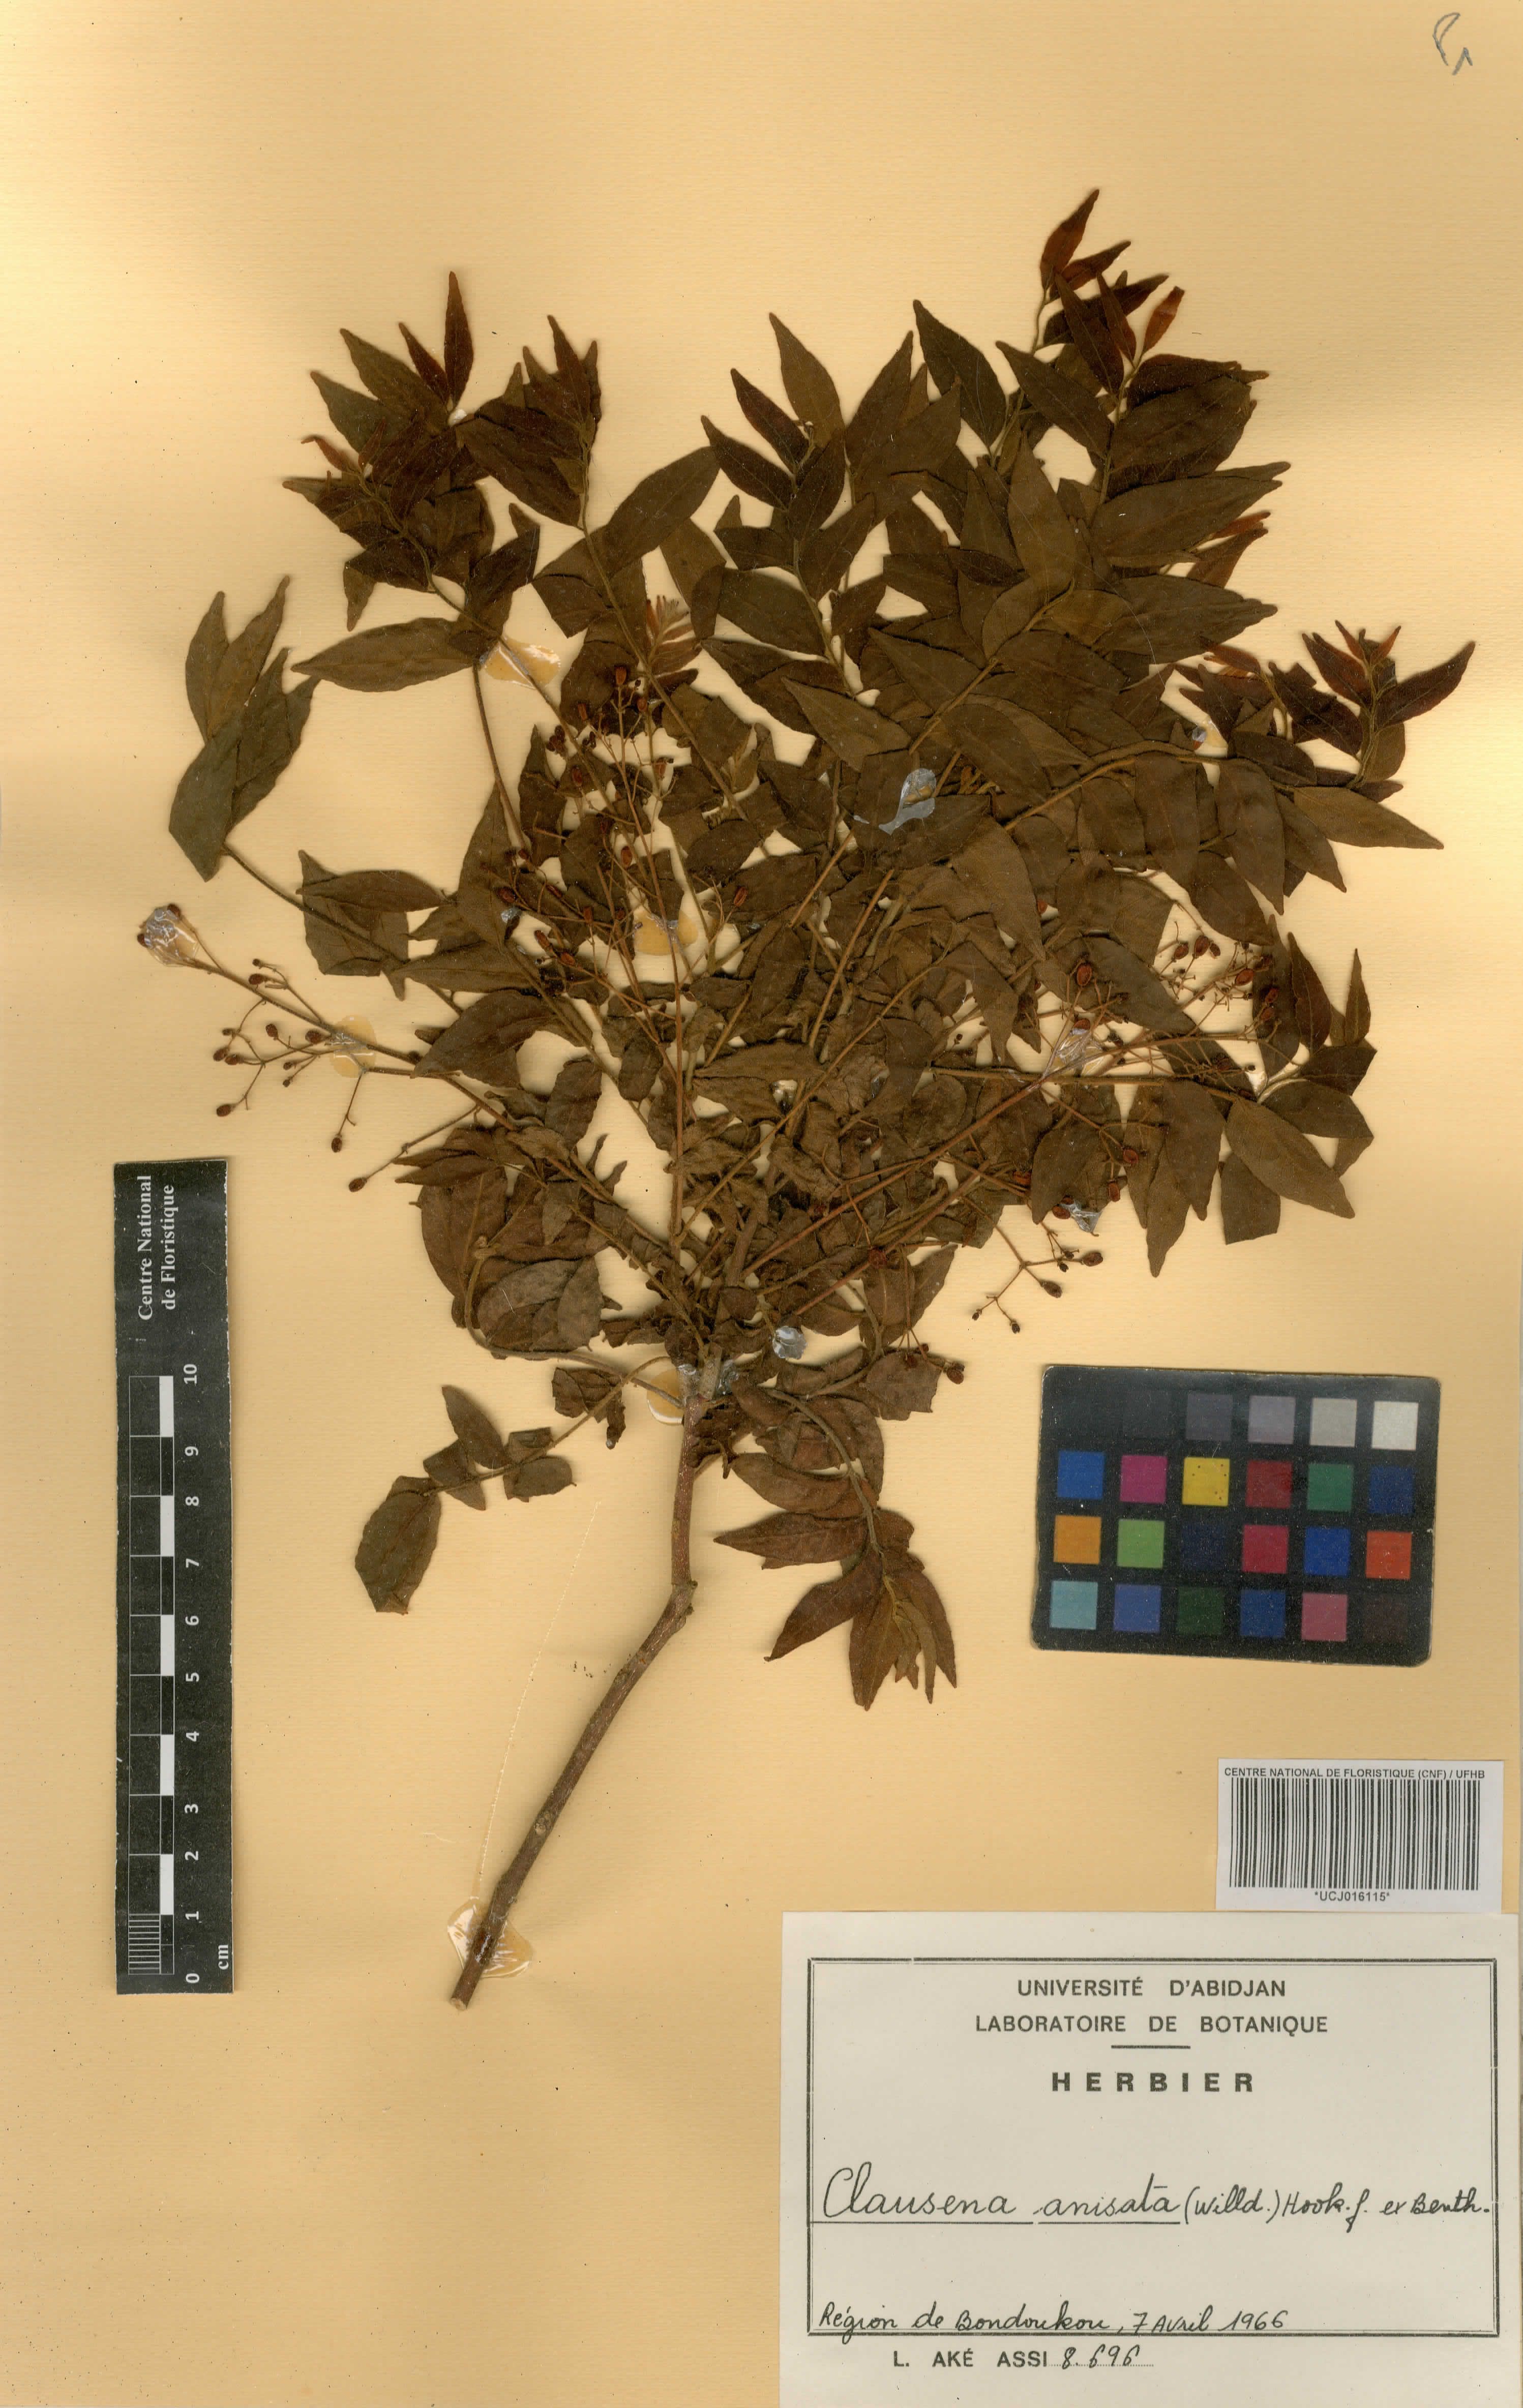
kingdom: Plantae
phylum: Tracheophyta
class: Magnoliopsida
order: Sapindales
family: Rutaceae
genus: Clausena
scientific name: Clausena anisata
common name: Horsewood
